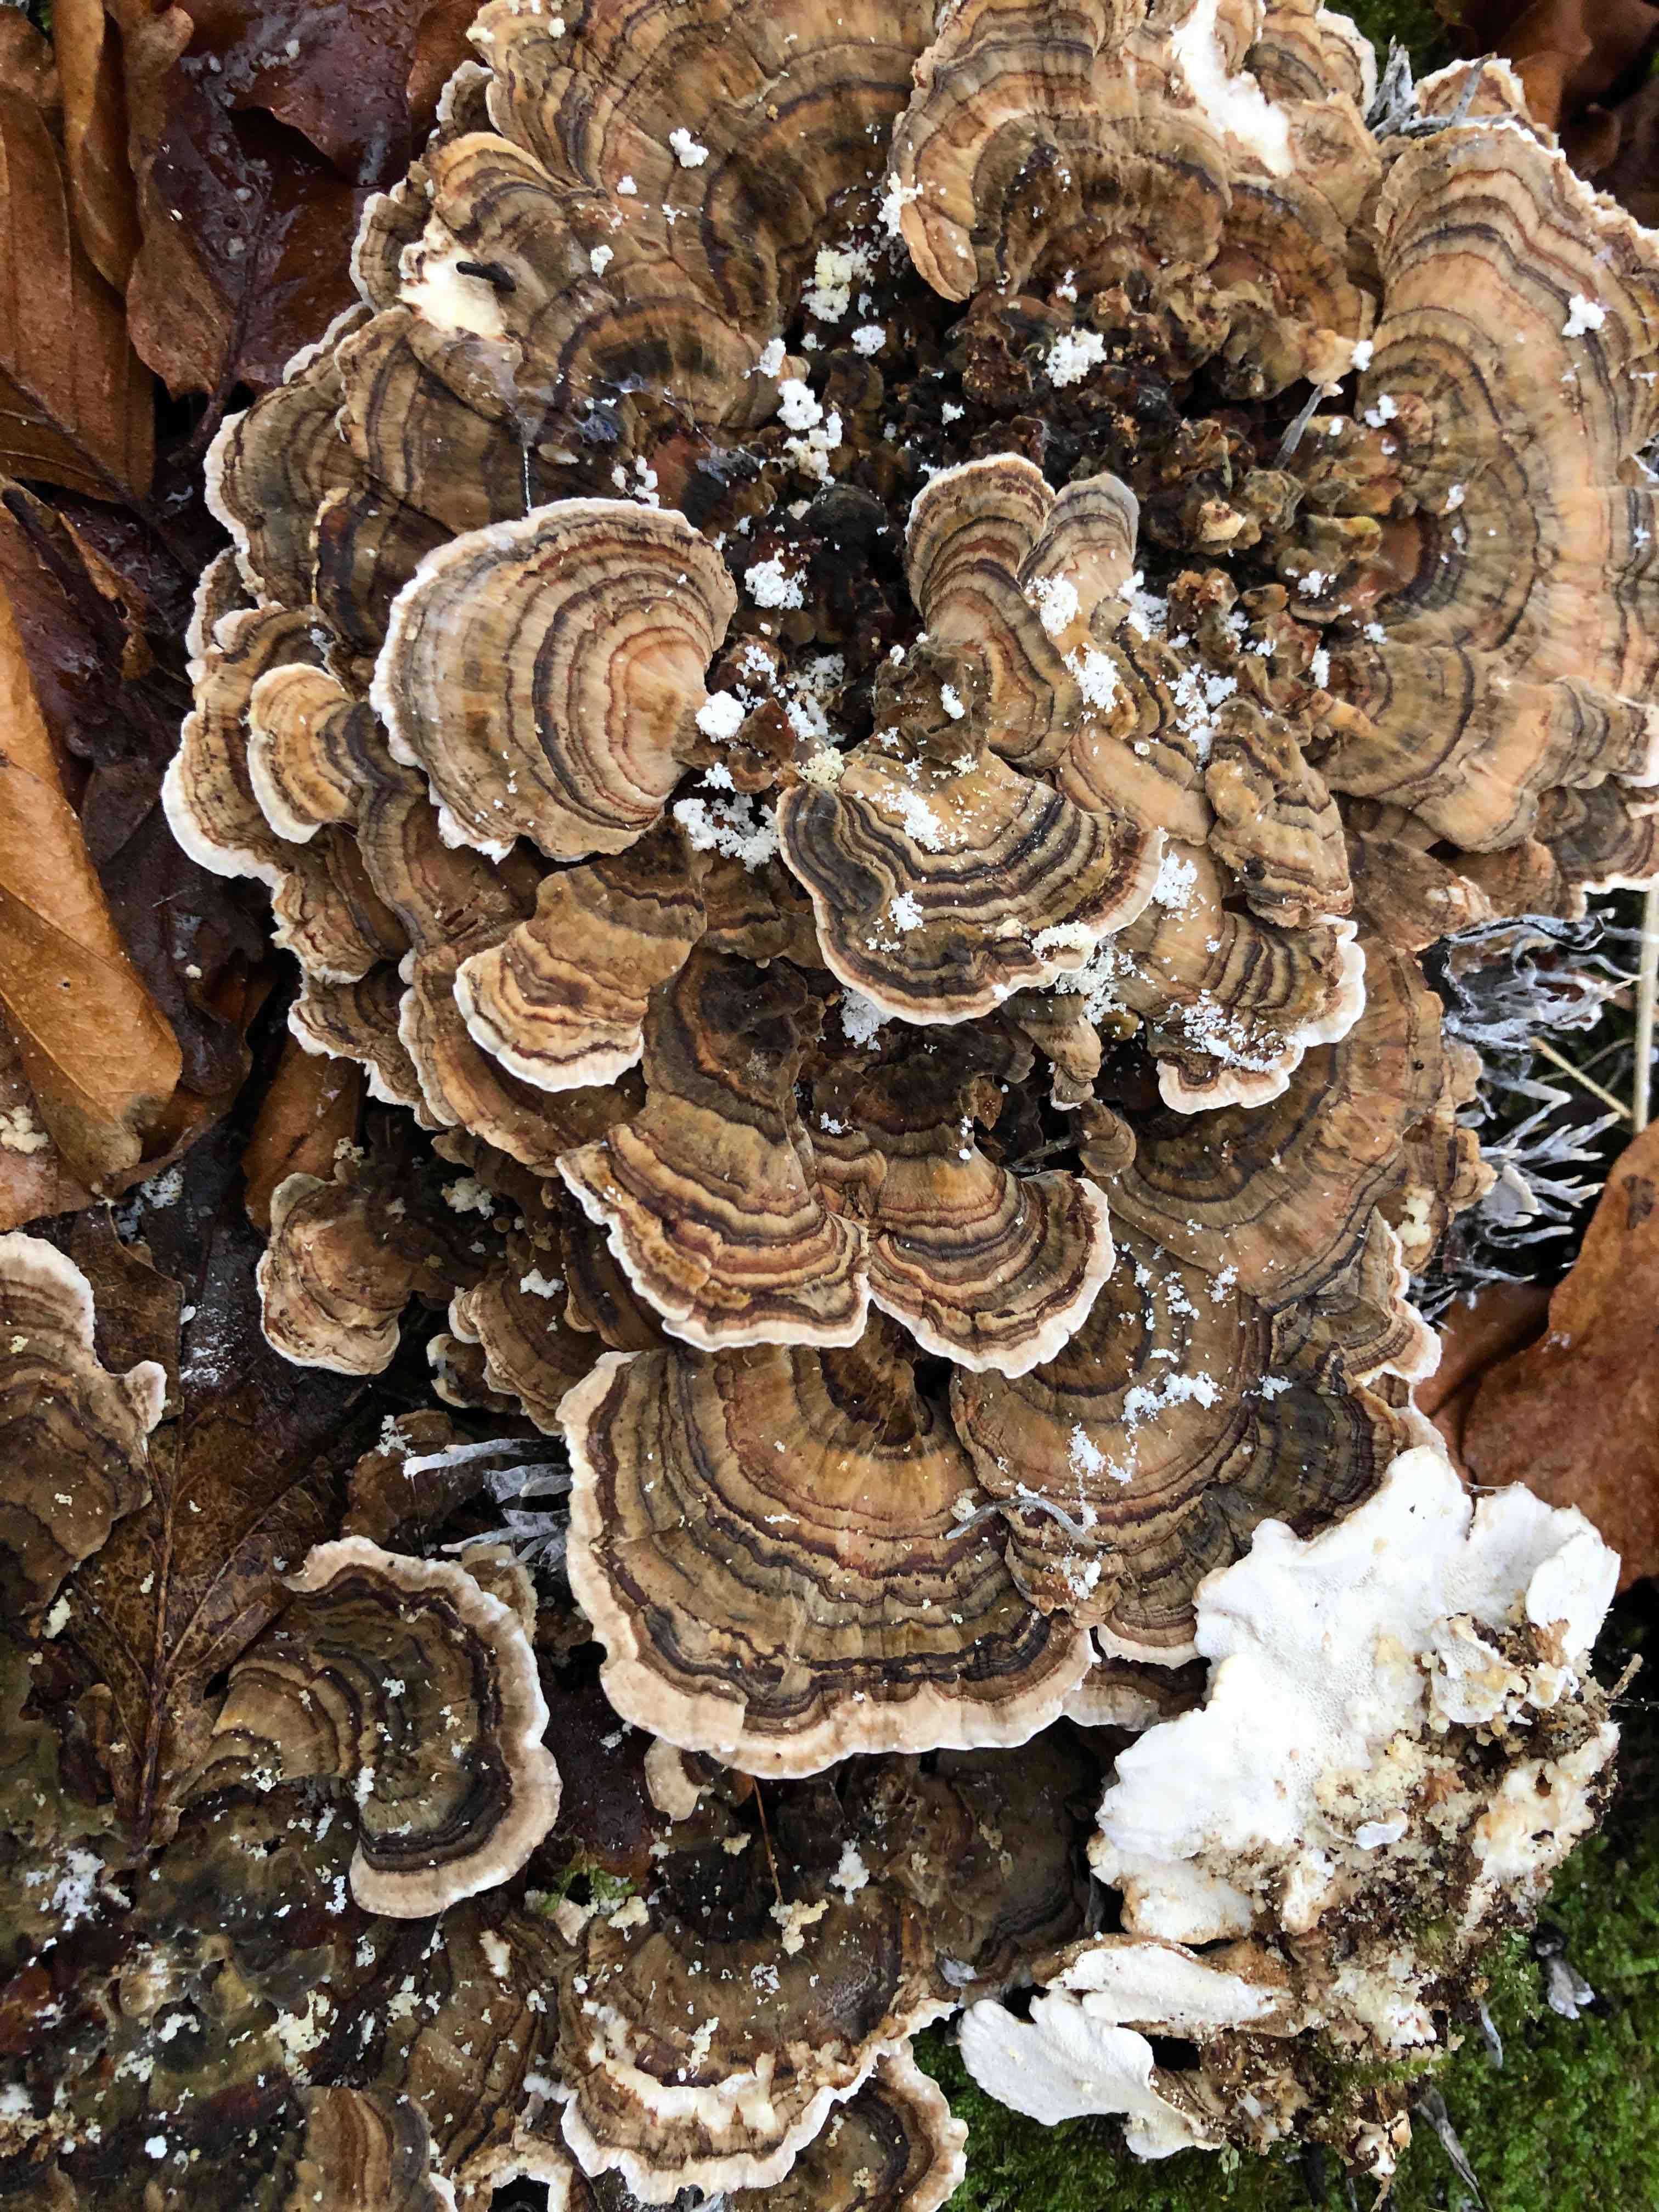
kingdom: Fungi
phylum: Basidiomycota
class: Agaricomycetes
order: Polyporales
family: Polyporaceae
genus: Trametes
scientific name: Trametes versicolor
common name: broget læderporesvamp
